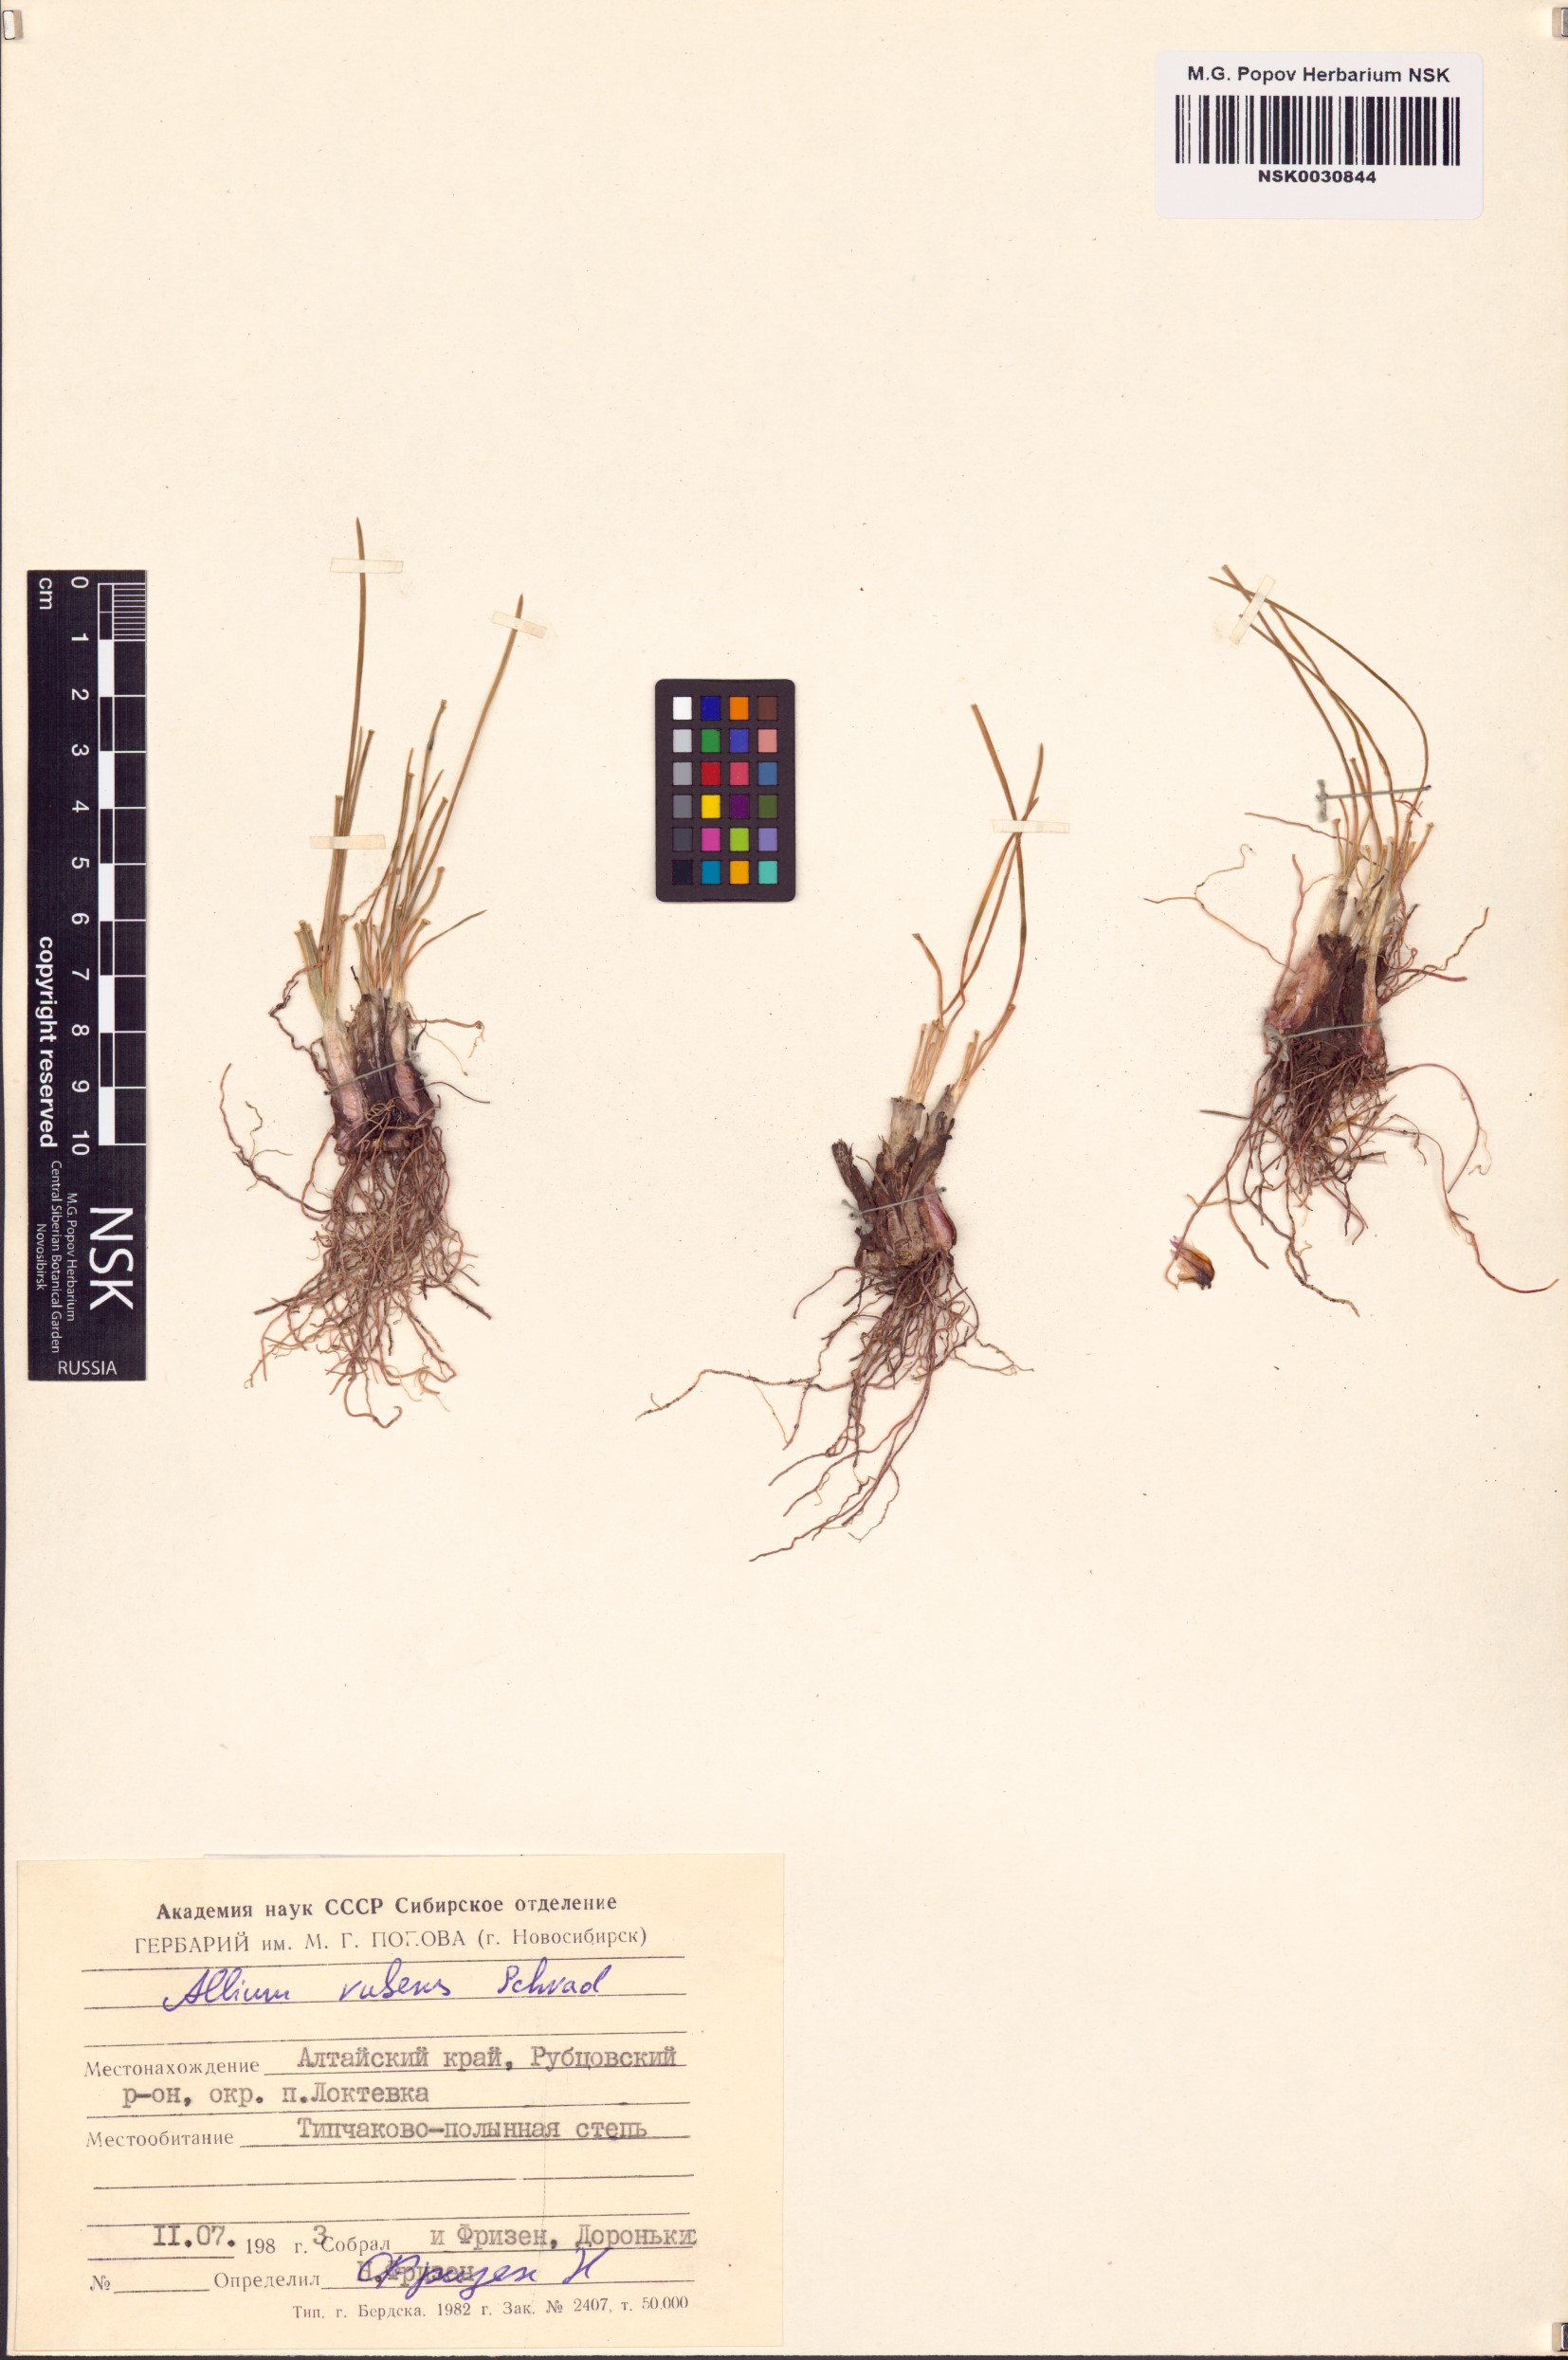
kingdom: Plantae
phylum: Tracheophyta
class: Liliopsida
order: Asparagales
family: Amaryllidaceae
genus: Allium
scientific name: Allium rubens
